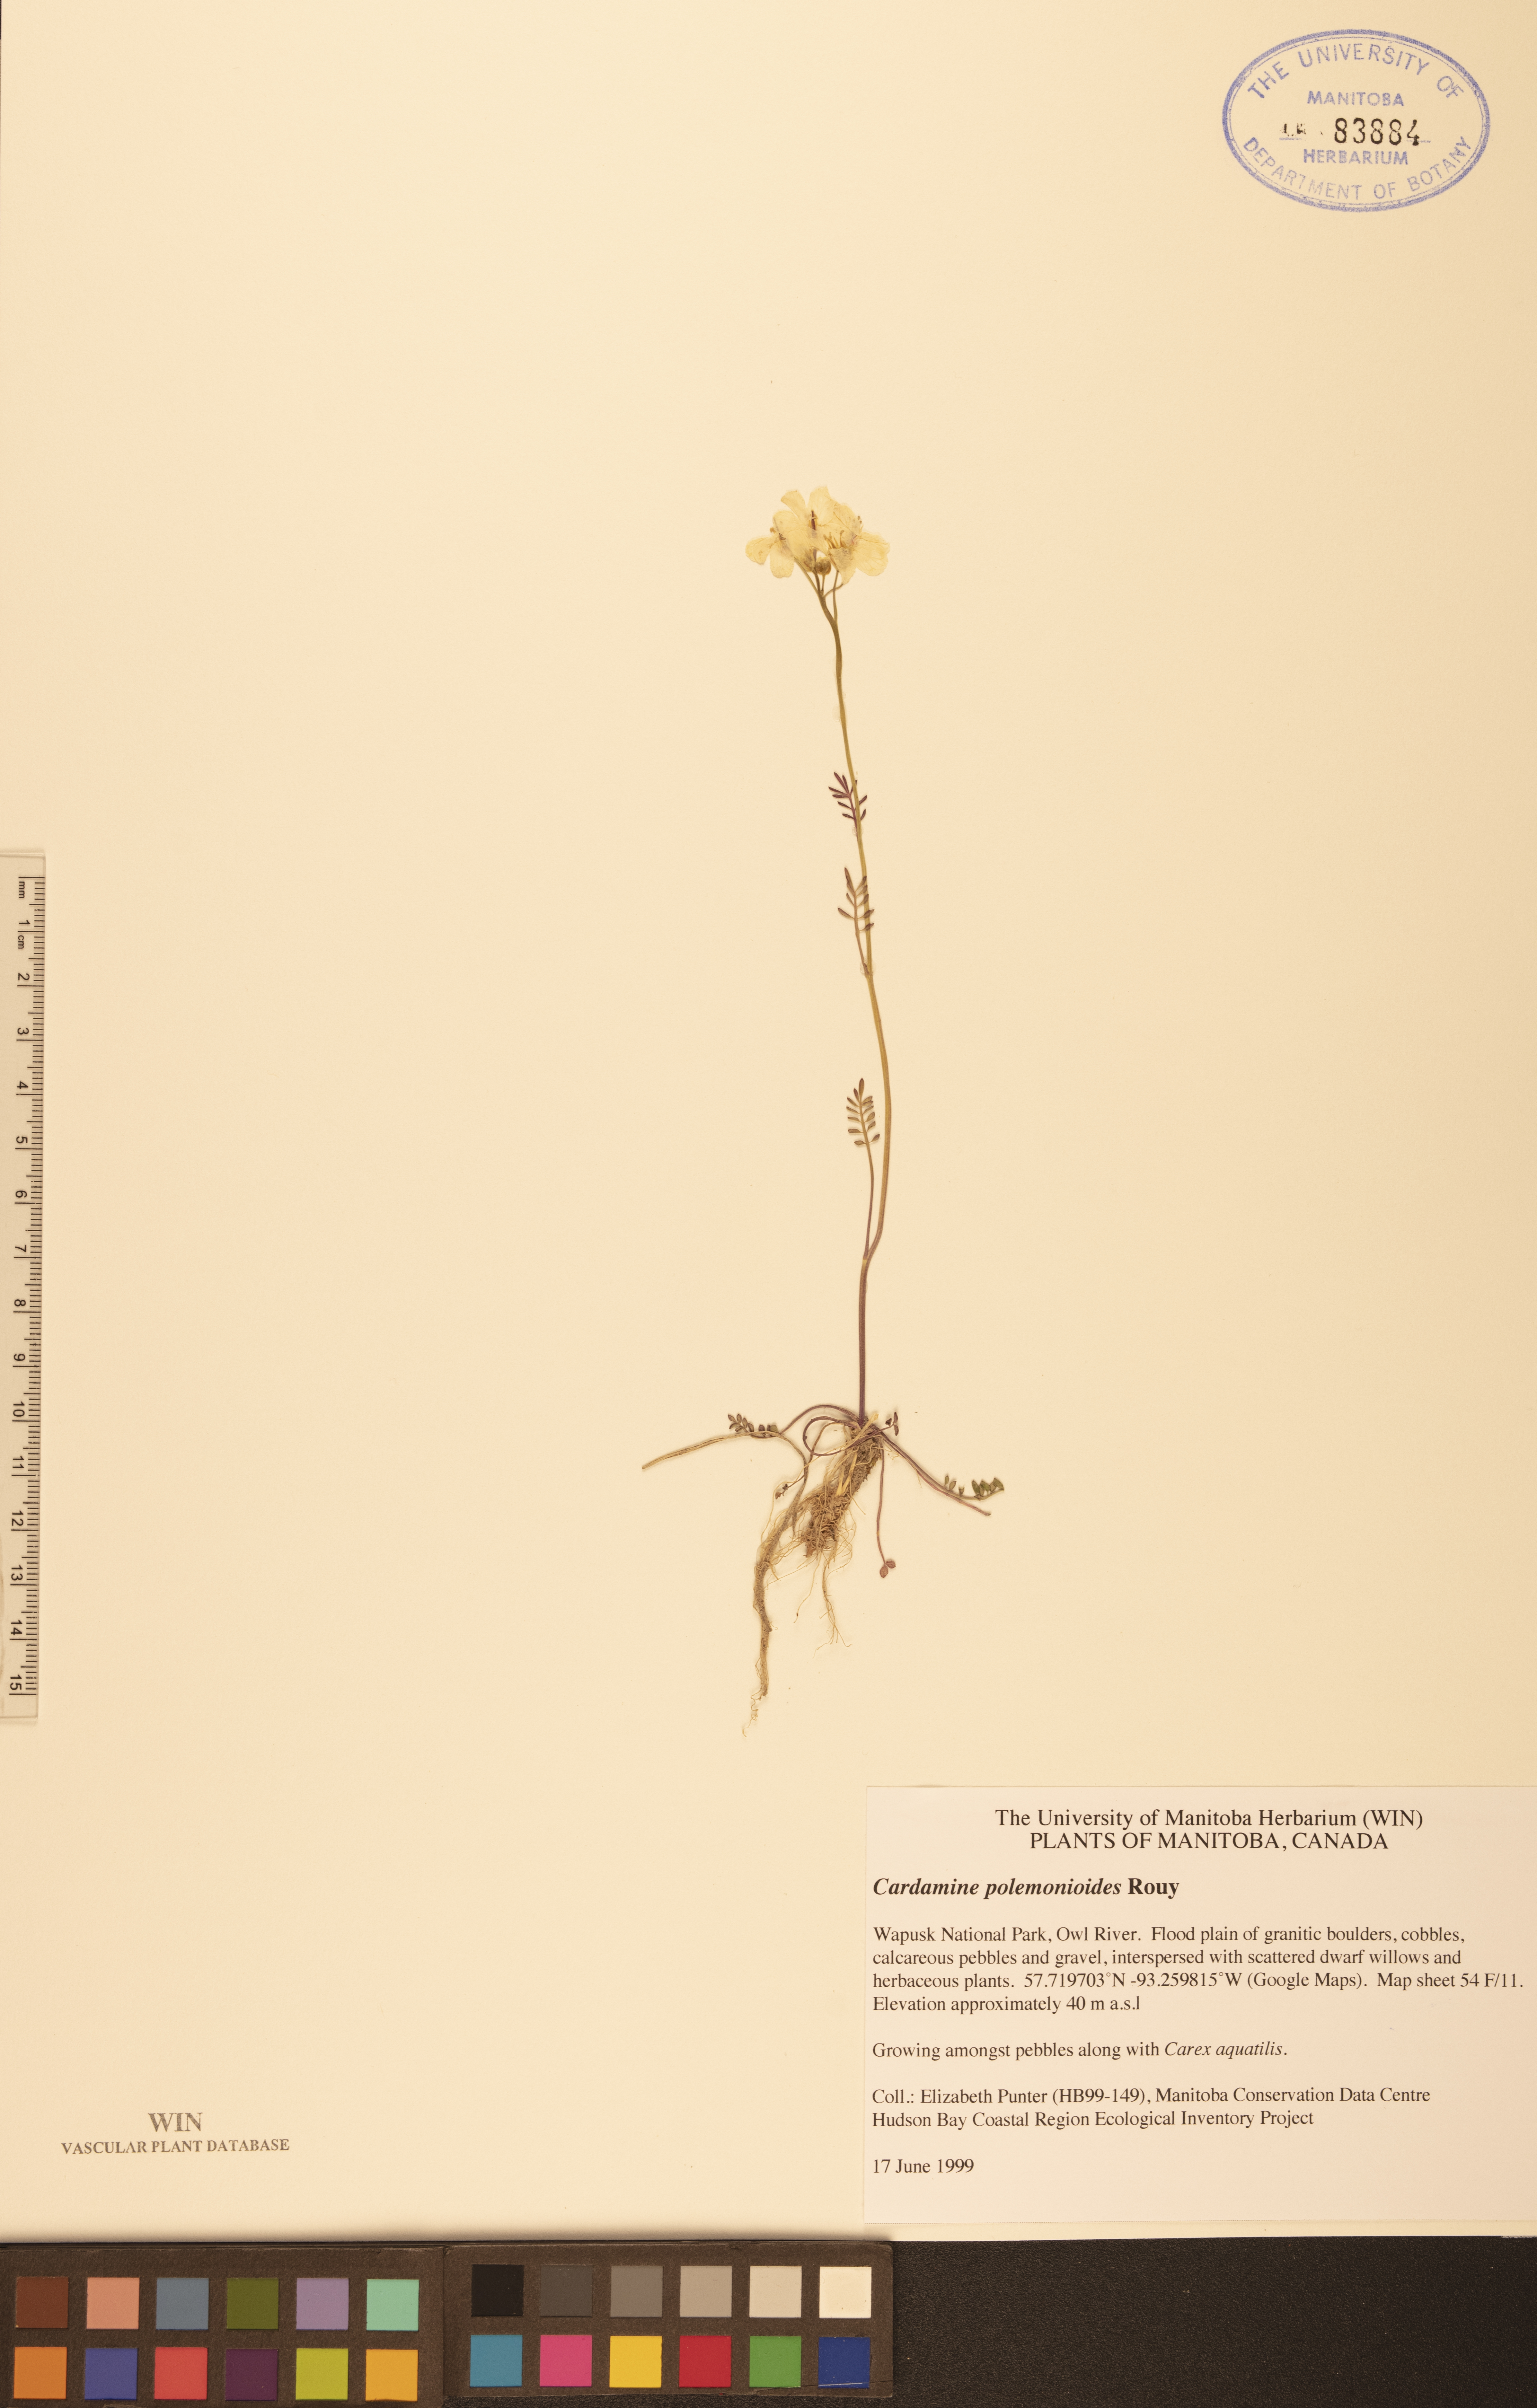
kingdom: Plantae
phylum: Tracheophyta
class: Magnoliopsida
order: Brassicales
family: Brassicaceae
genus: Cardamine
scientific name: Cardamine nymanii
